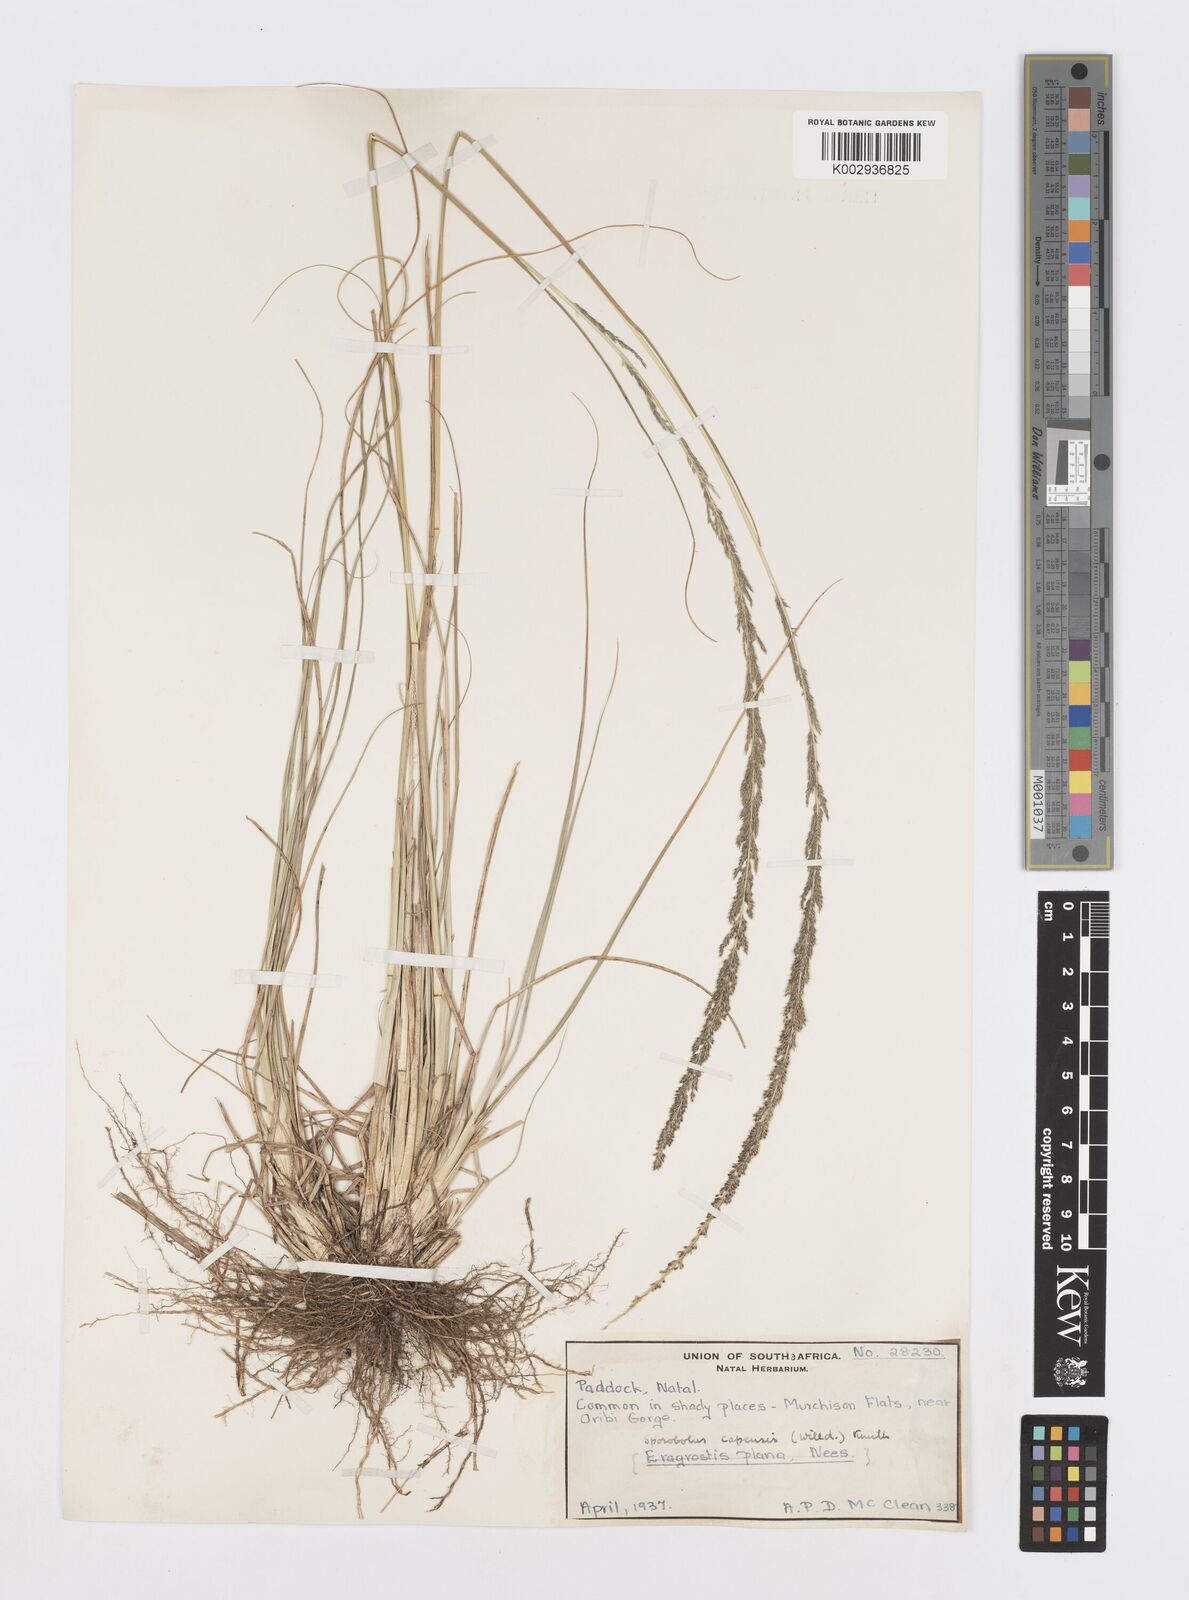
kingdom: Plantae
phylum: Tracheophyta
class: Liliopsida
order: Poales
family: Poaceae
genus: Sporobolus
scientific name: Sporobolus africanus
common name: African dropseed
